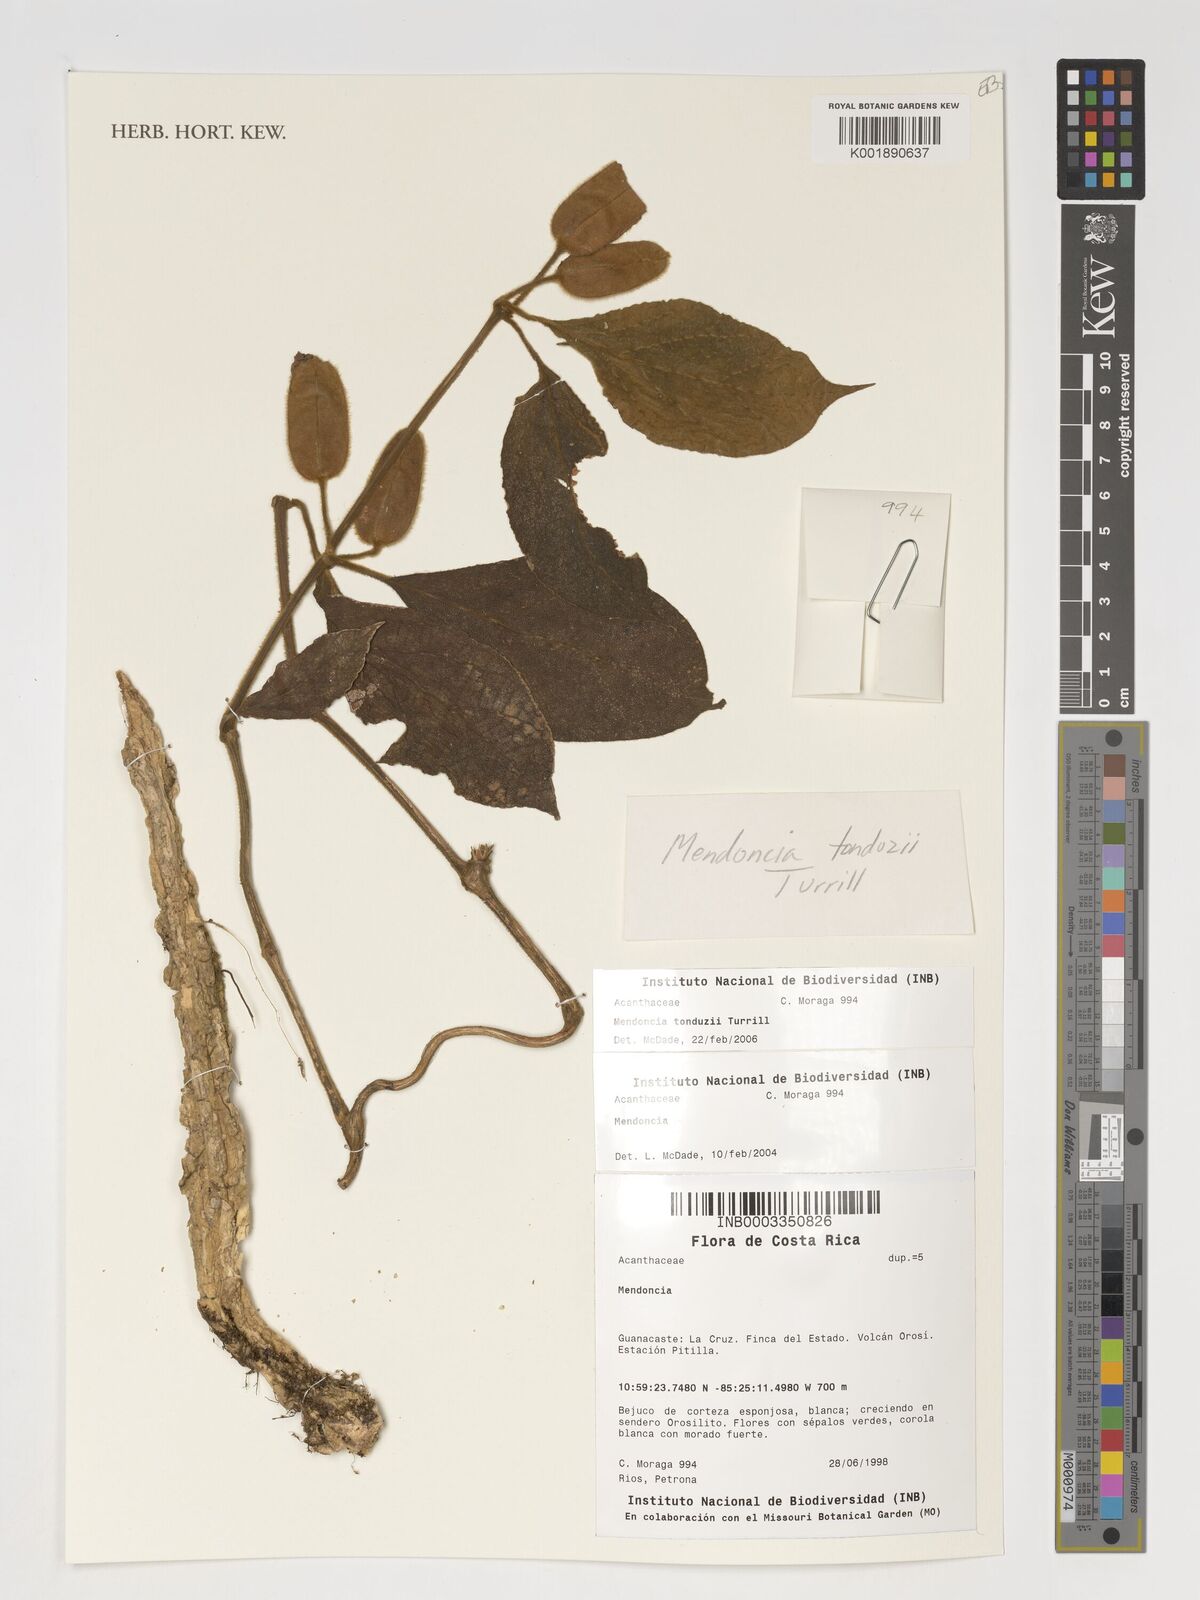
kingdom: Plantae
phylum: Tracheophyta
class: Magnoliopsida
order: Lamiales
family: Acanthaceae
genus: Mendoncia
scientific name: Mendoncia tonduzii
